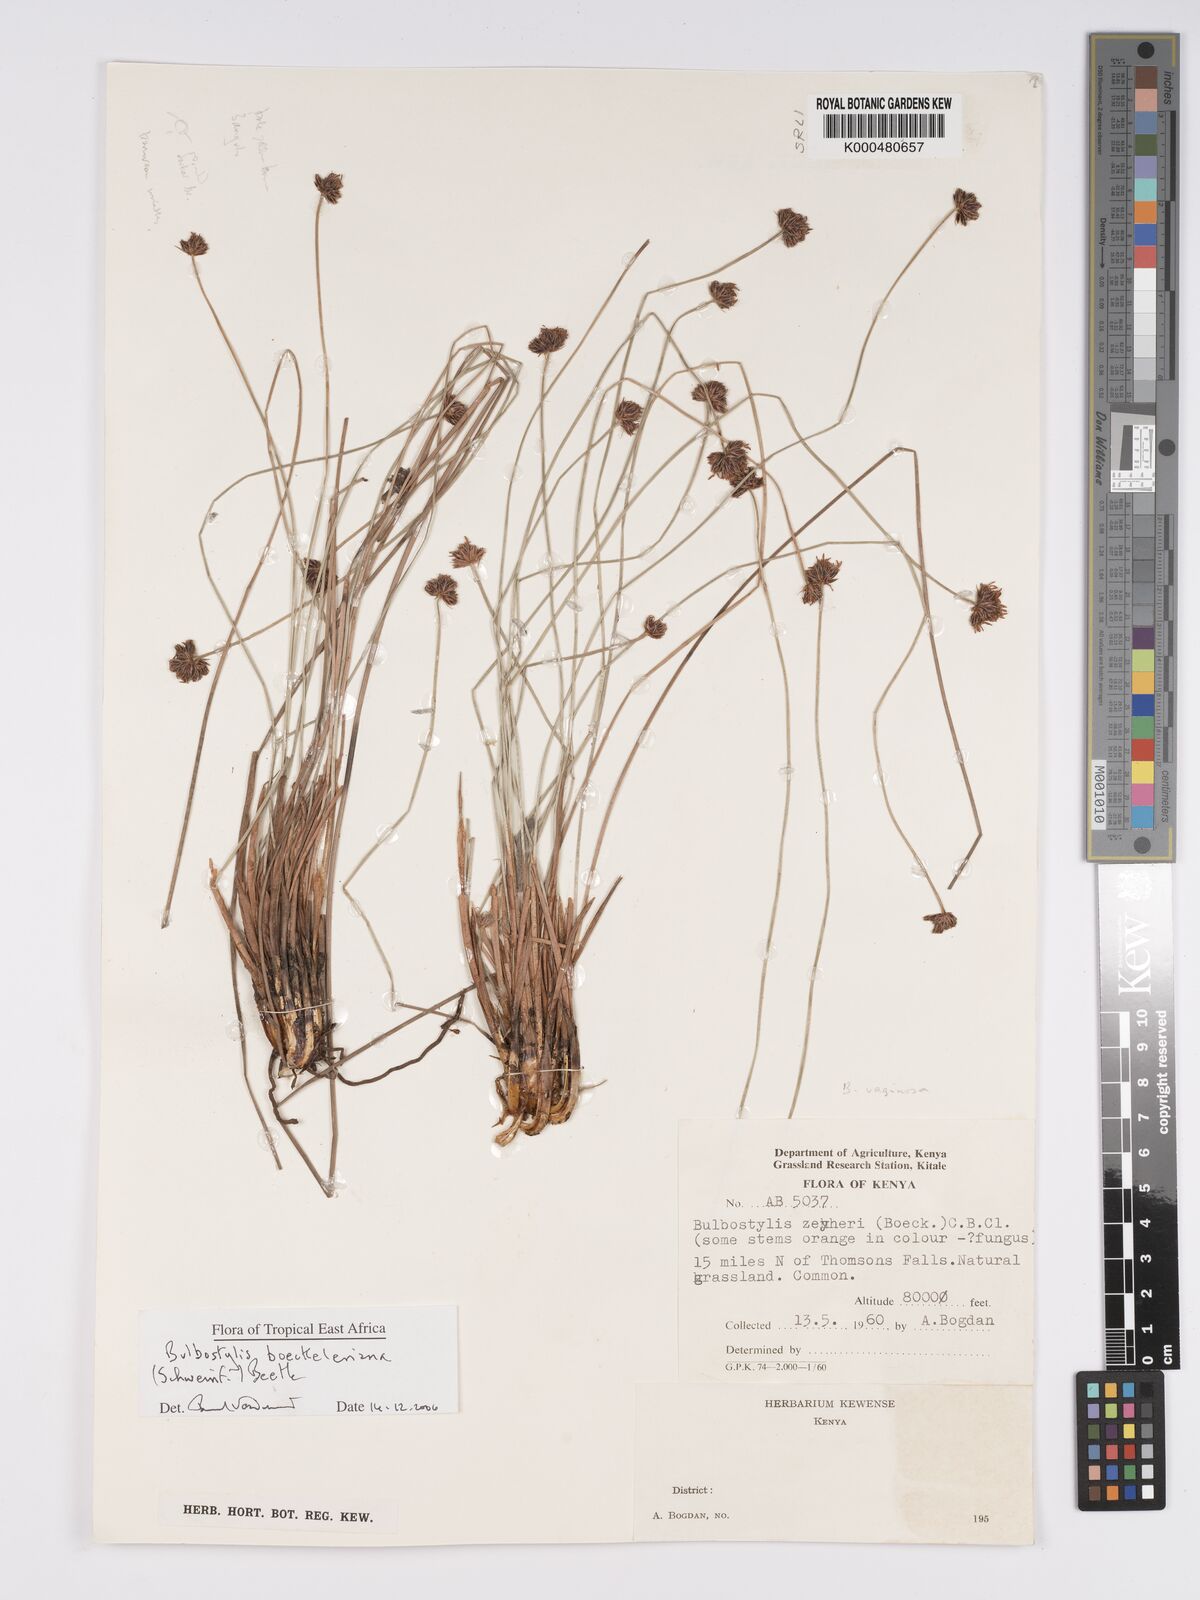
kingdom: Plantae
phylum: Tracheophyta
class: Liliopsida
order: Poales
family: Cyperaceae
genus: Bulbostylis
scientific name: Bulbostylis boeckeleriana
